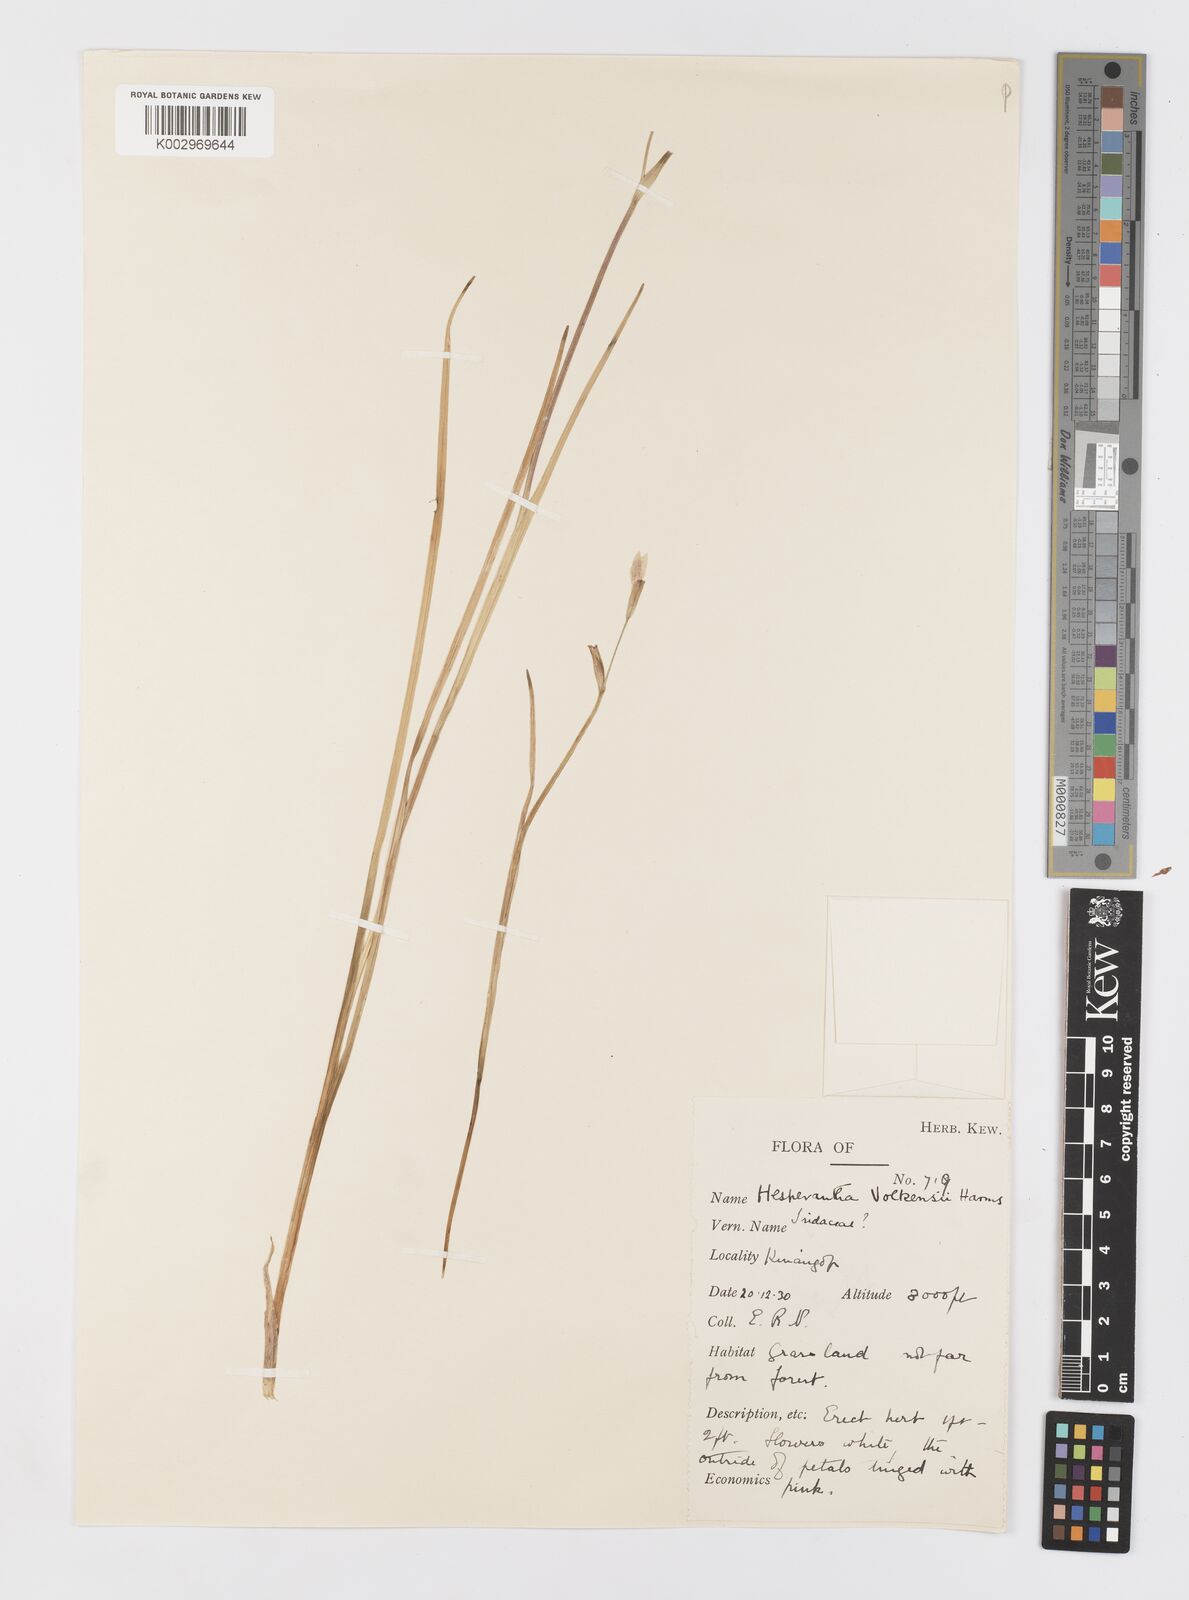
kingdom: Plantae
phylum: Tracheophyta
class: Liliopsida
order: Asparagales
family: Iridaceae
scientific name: Iridaceae
